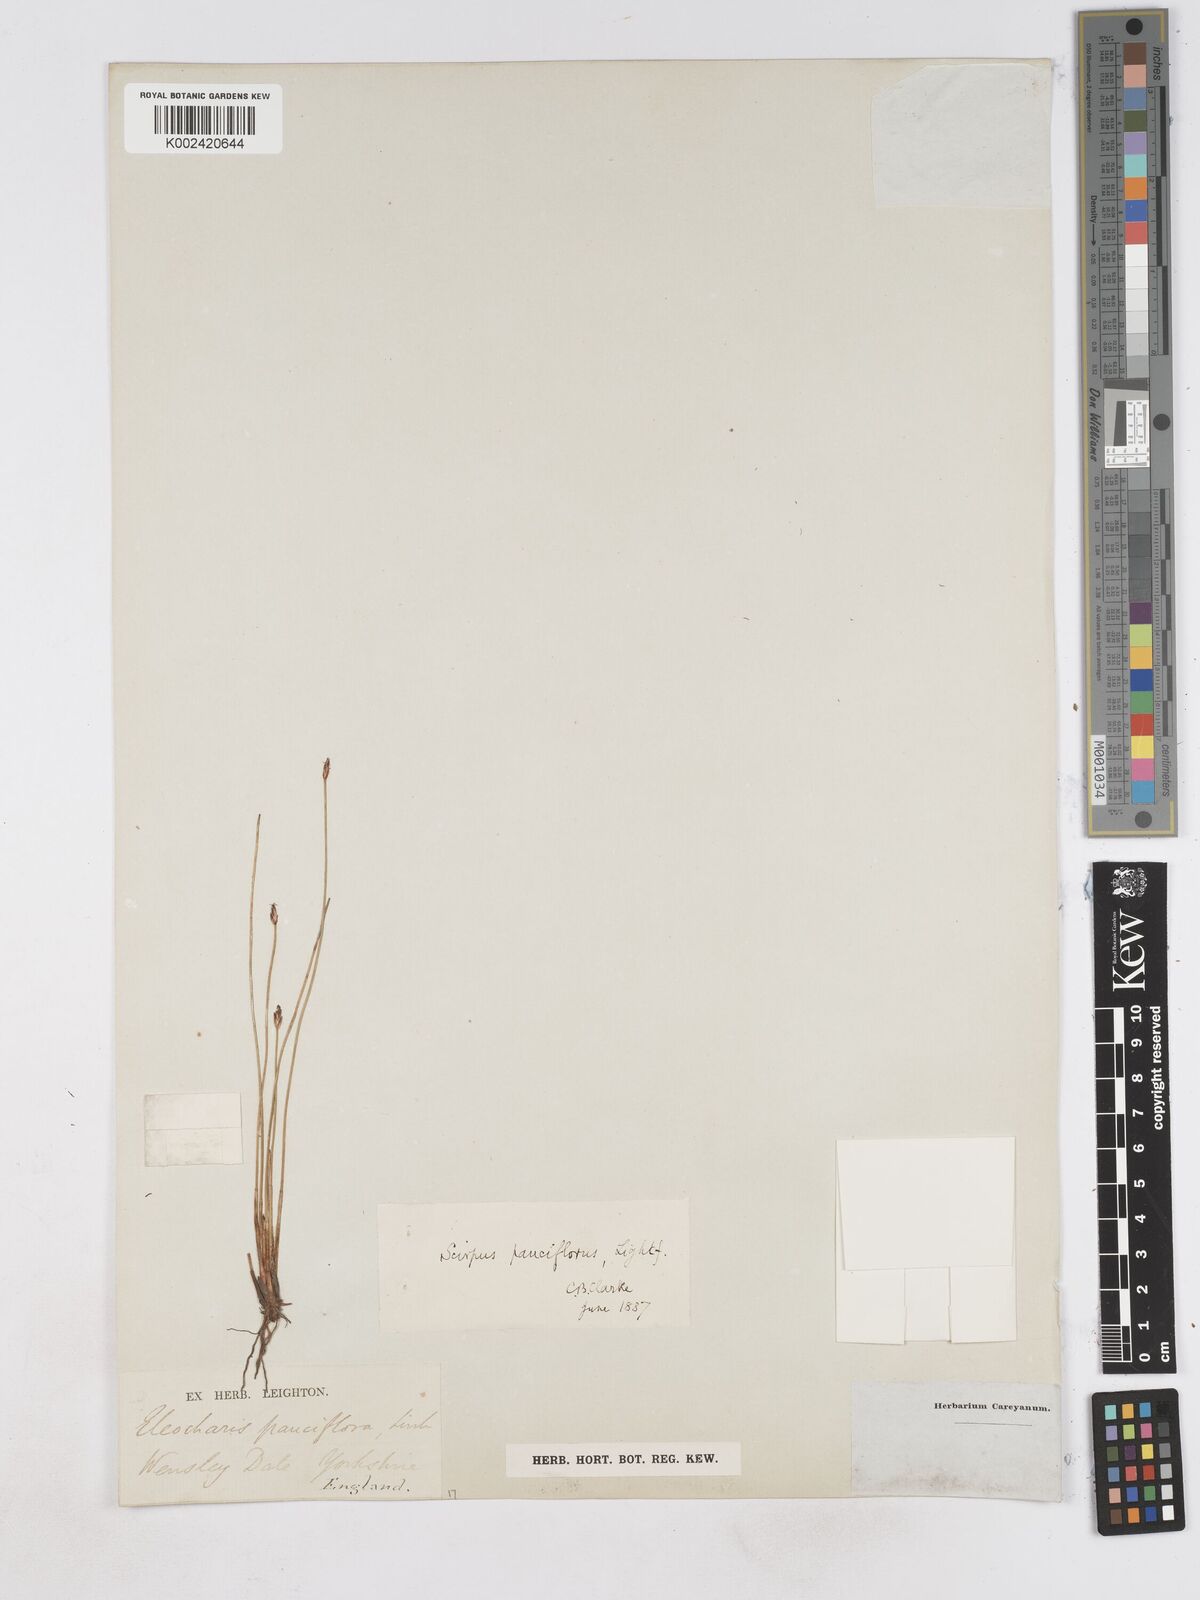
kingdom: Plantae
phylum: Tracheophyta
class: Liliopsida
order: Poales
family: Cyperaceae
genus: Eleocharis
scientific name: Eleocharis quinqueflora
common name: Few-flowered spike-rush
